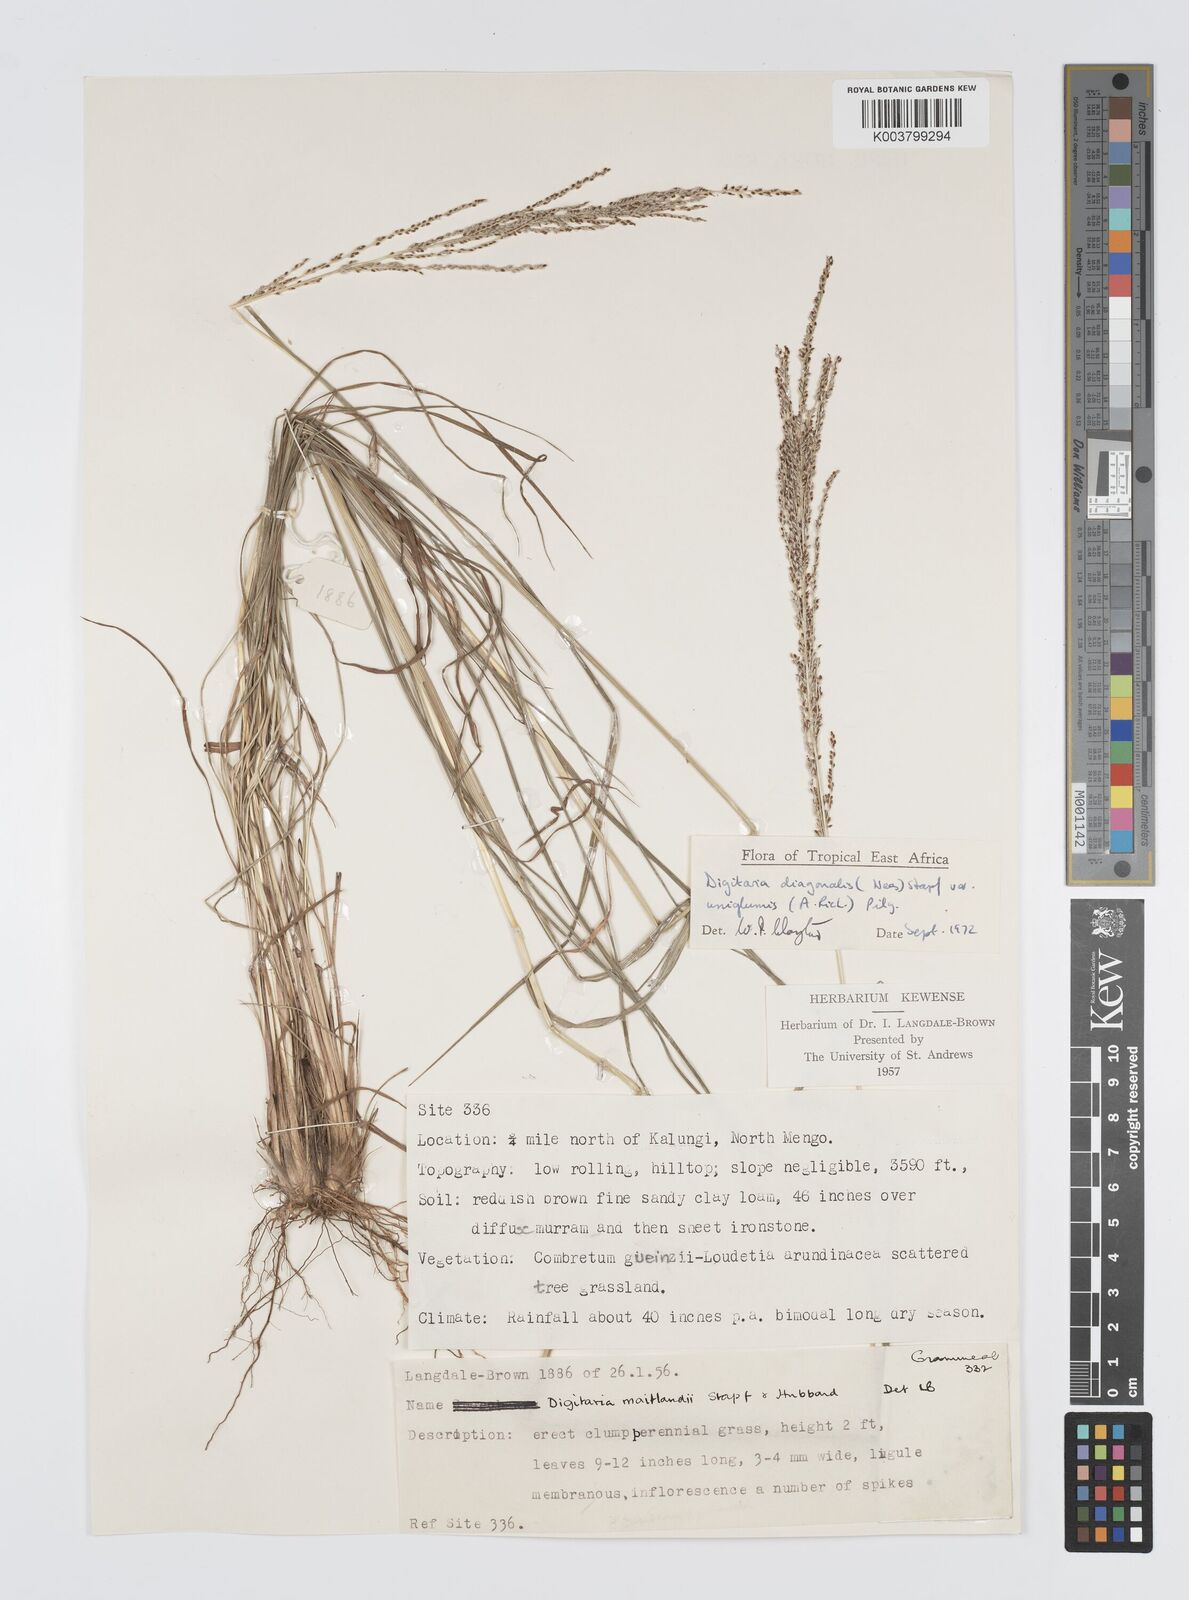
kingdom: Plantae
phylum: Tracheophyta
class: Liliopsida
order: Poales
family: Poaceae
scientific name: Poaceae
